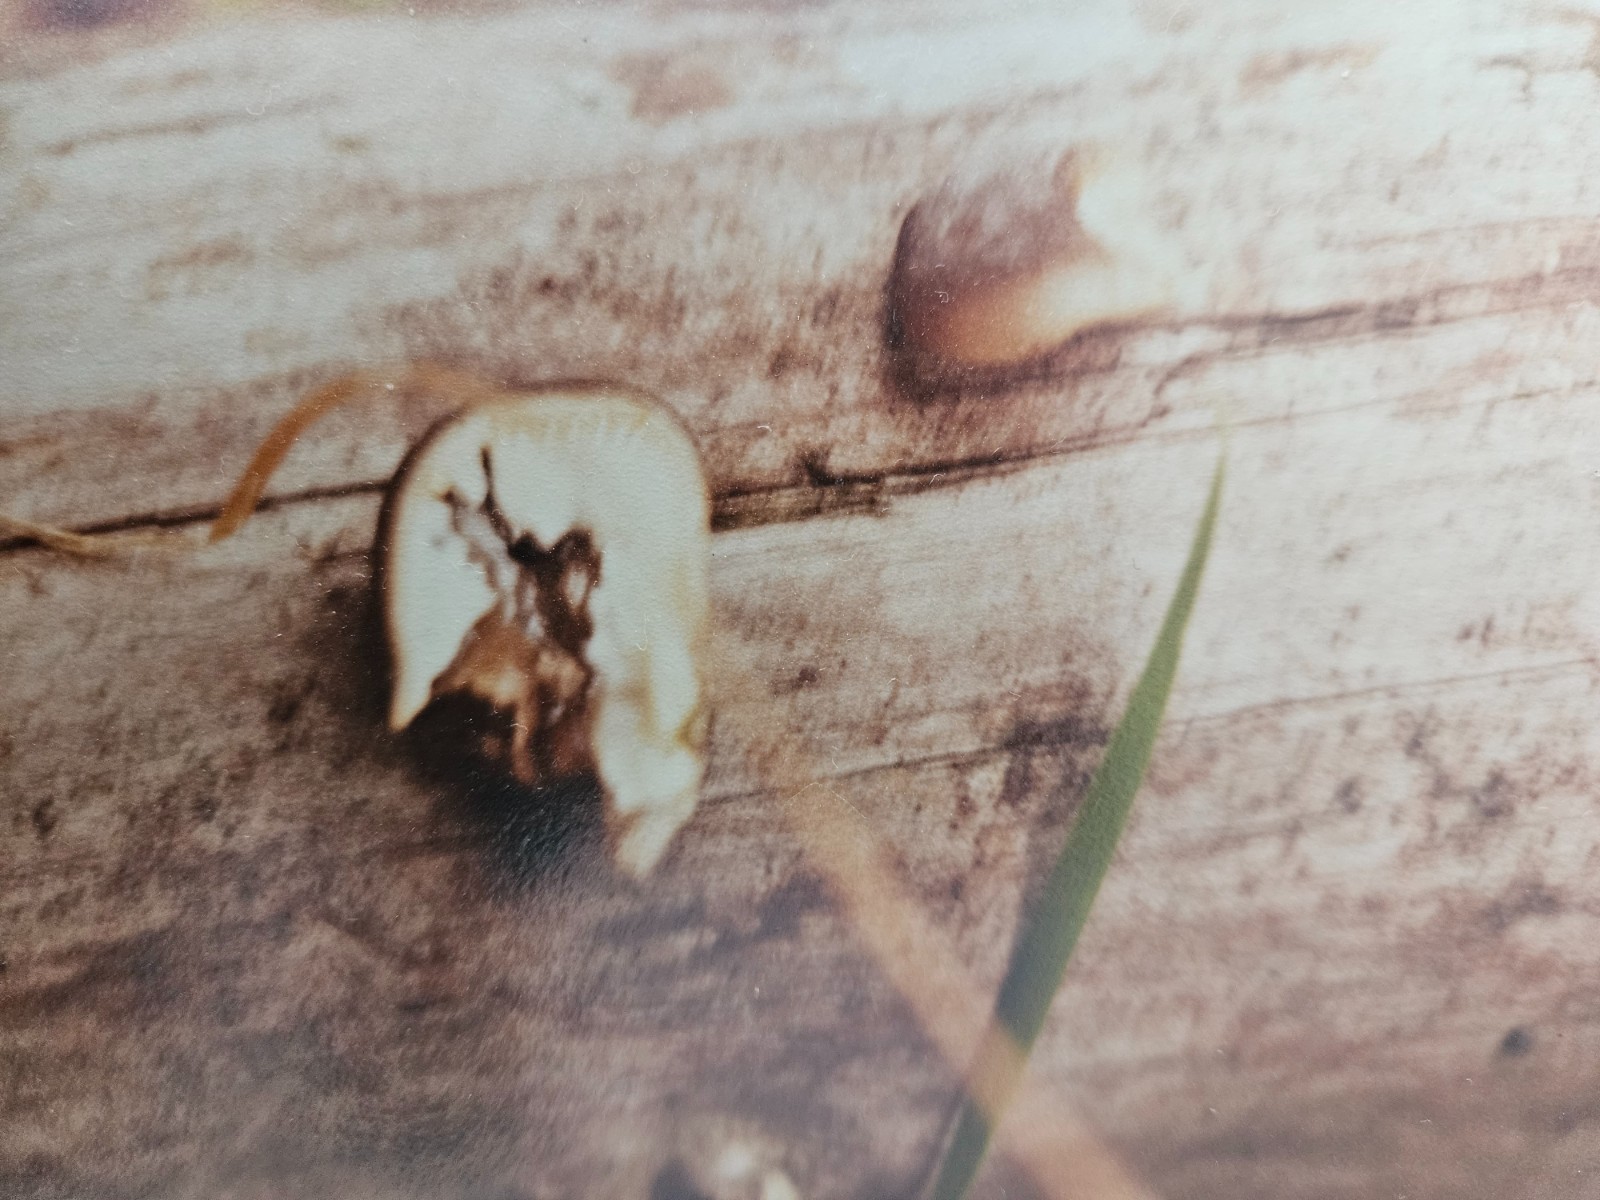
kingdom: Fungi
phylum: Basidiomycota
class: Agaricomycetes
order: Agaricales
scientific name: Agaricales
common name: champignonordenen
